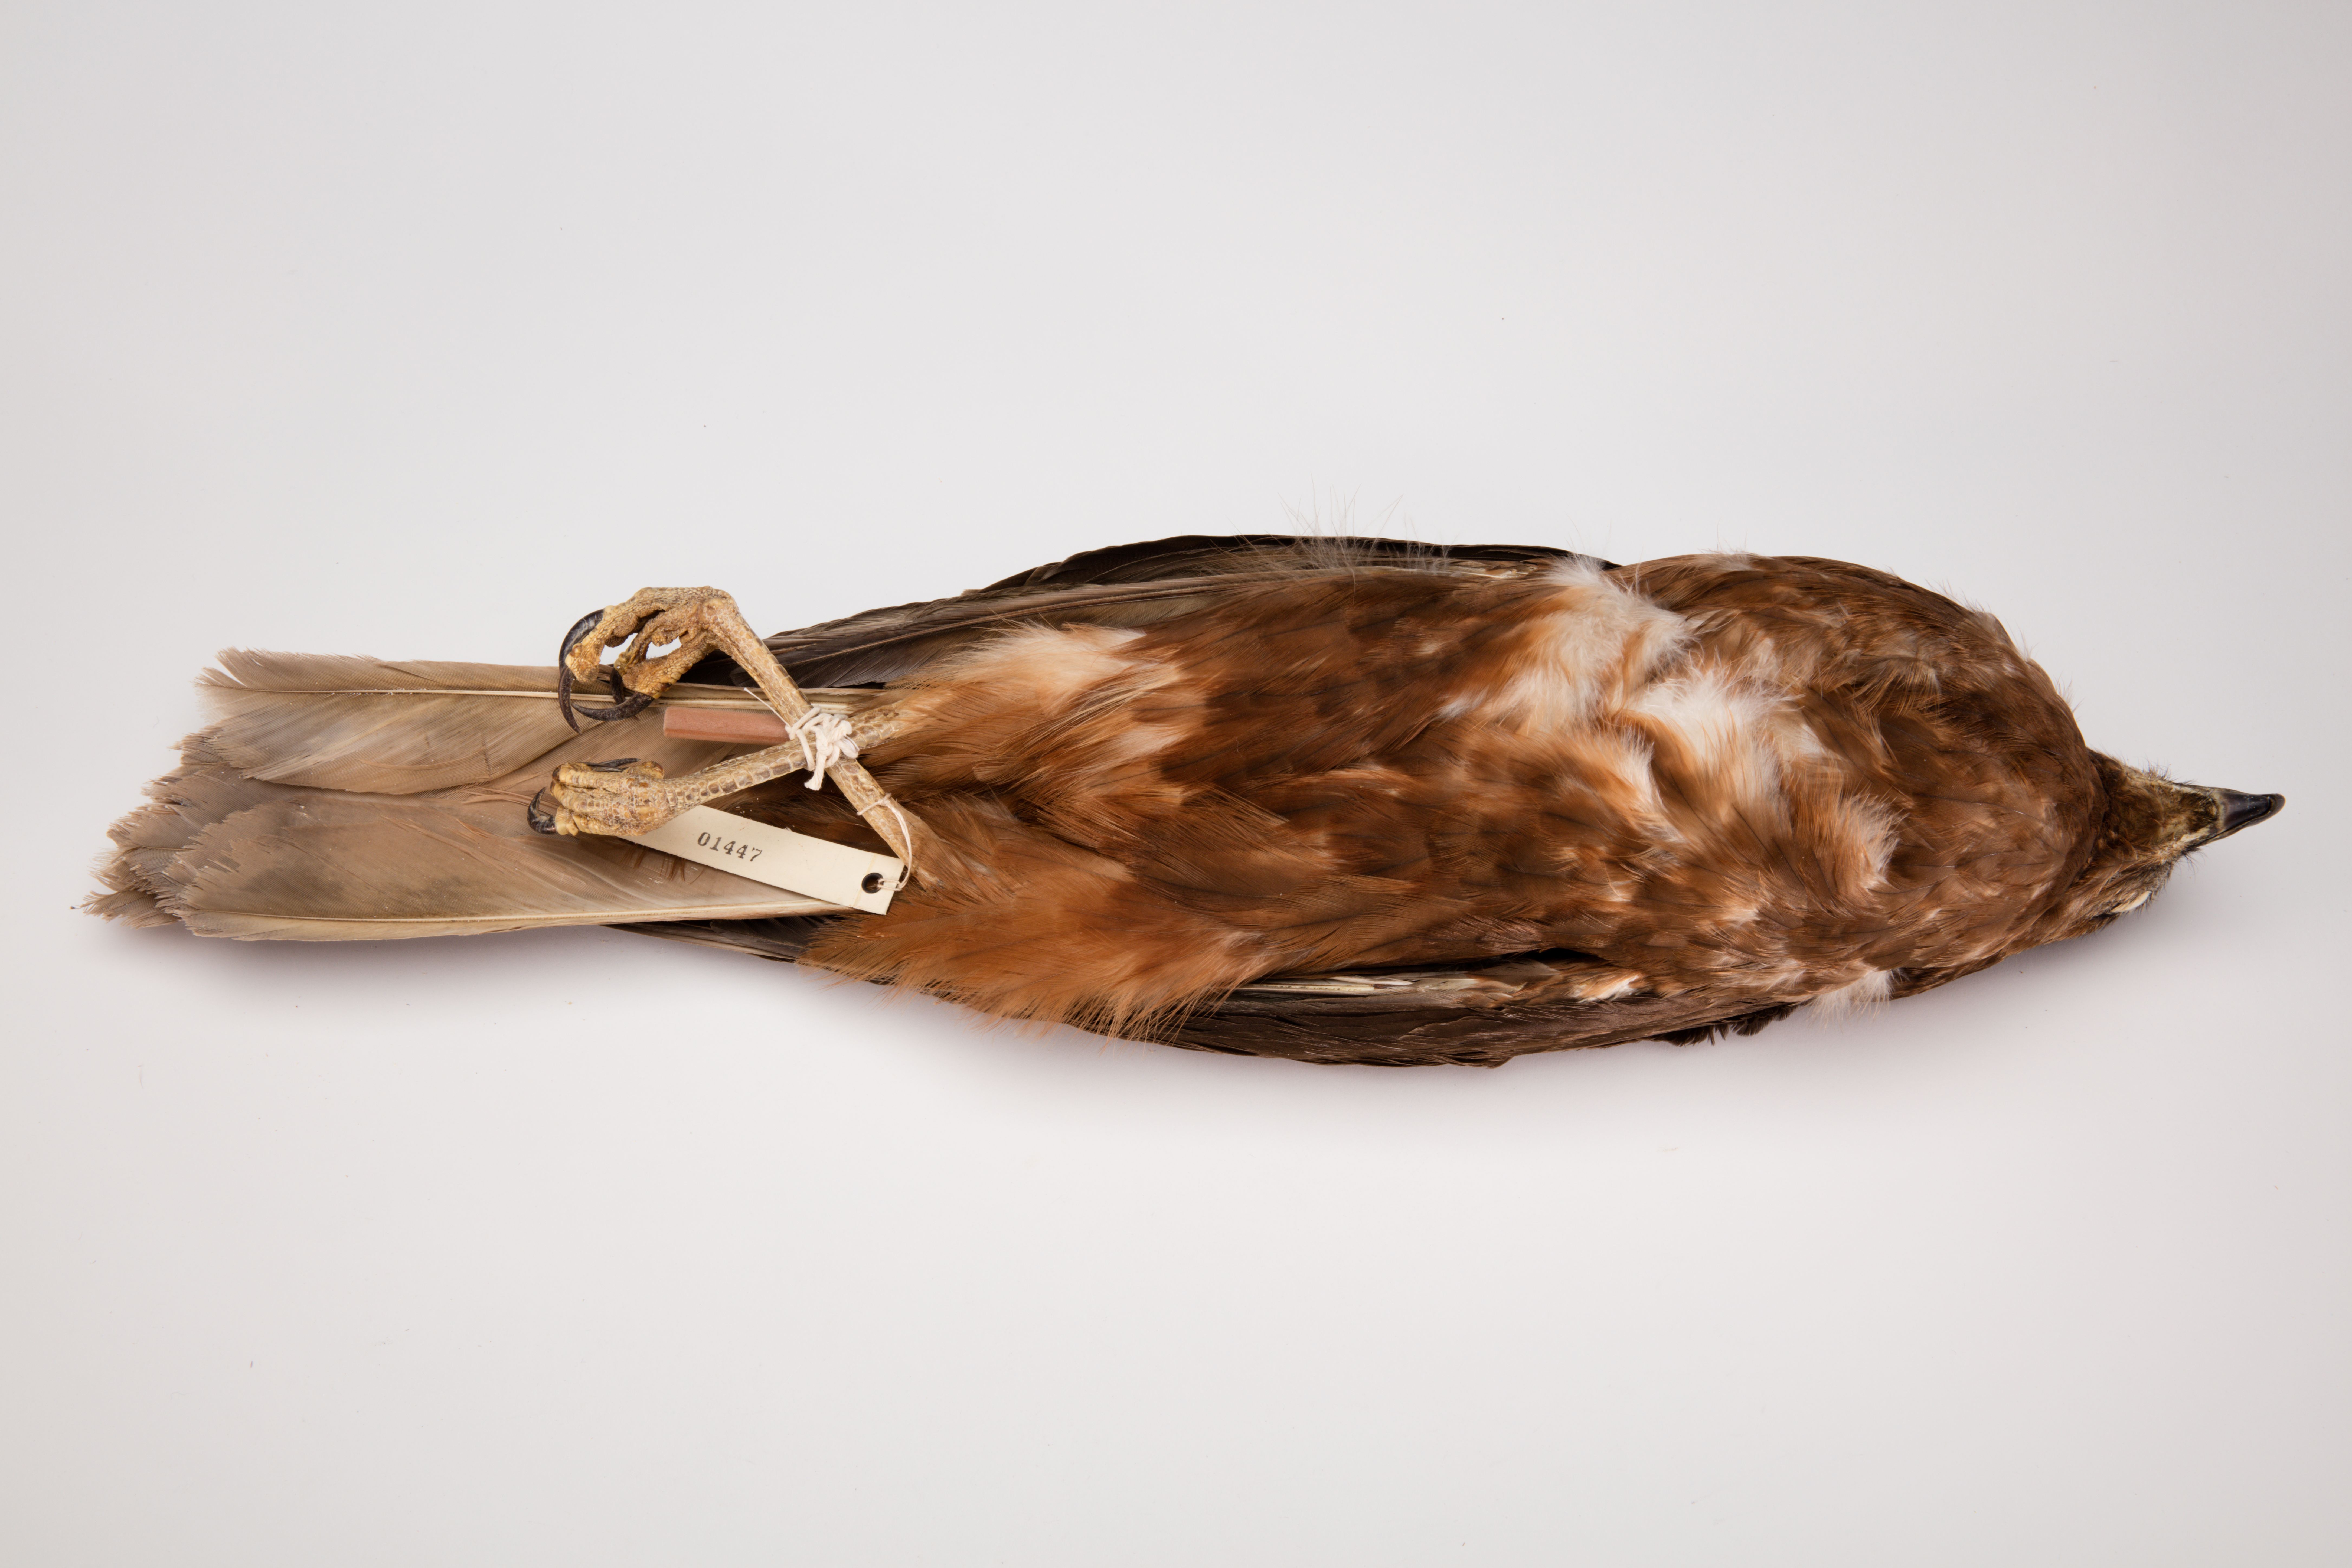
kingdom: Animalia
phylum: Chordata
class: Aves
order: Accipitriformes
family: Accipitridae
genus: Circus
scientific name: Circus approximans
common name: Swamp harrier
